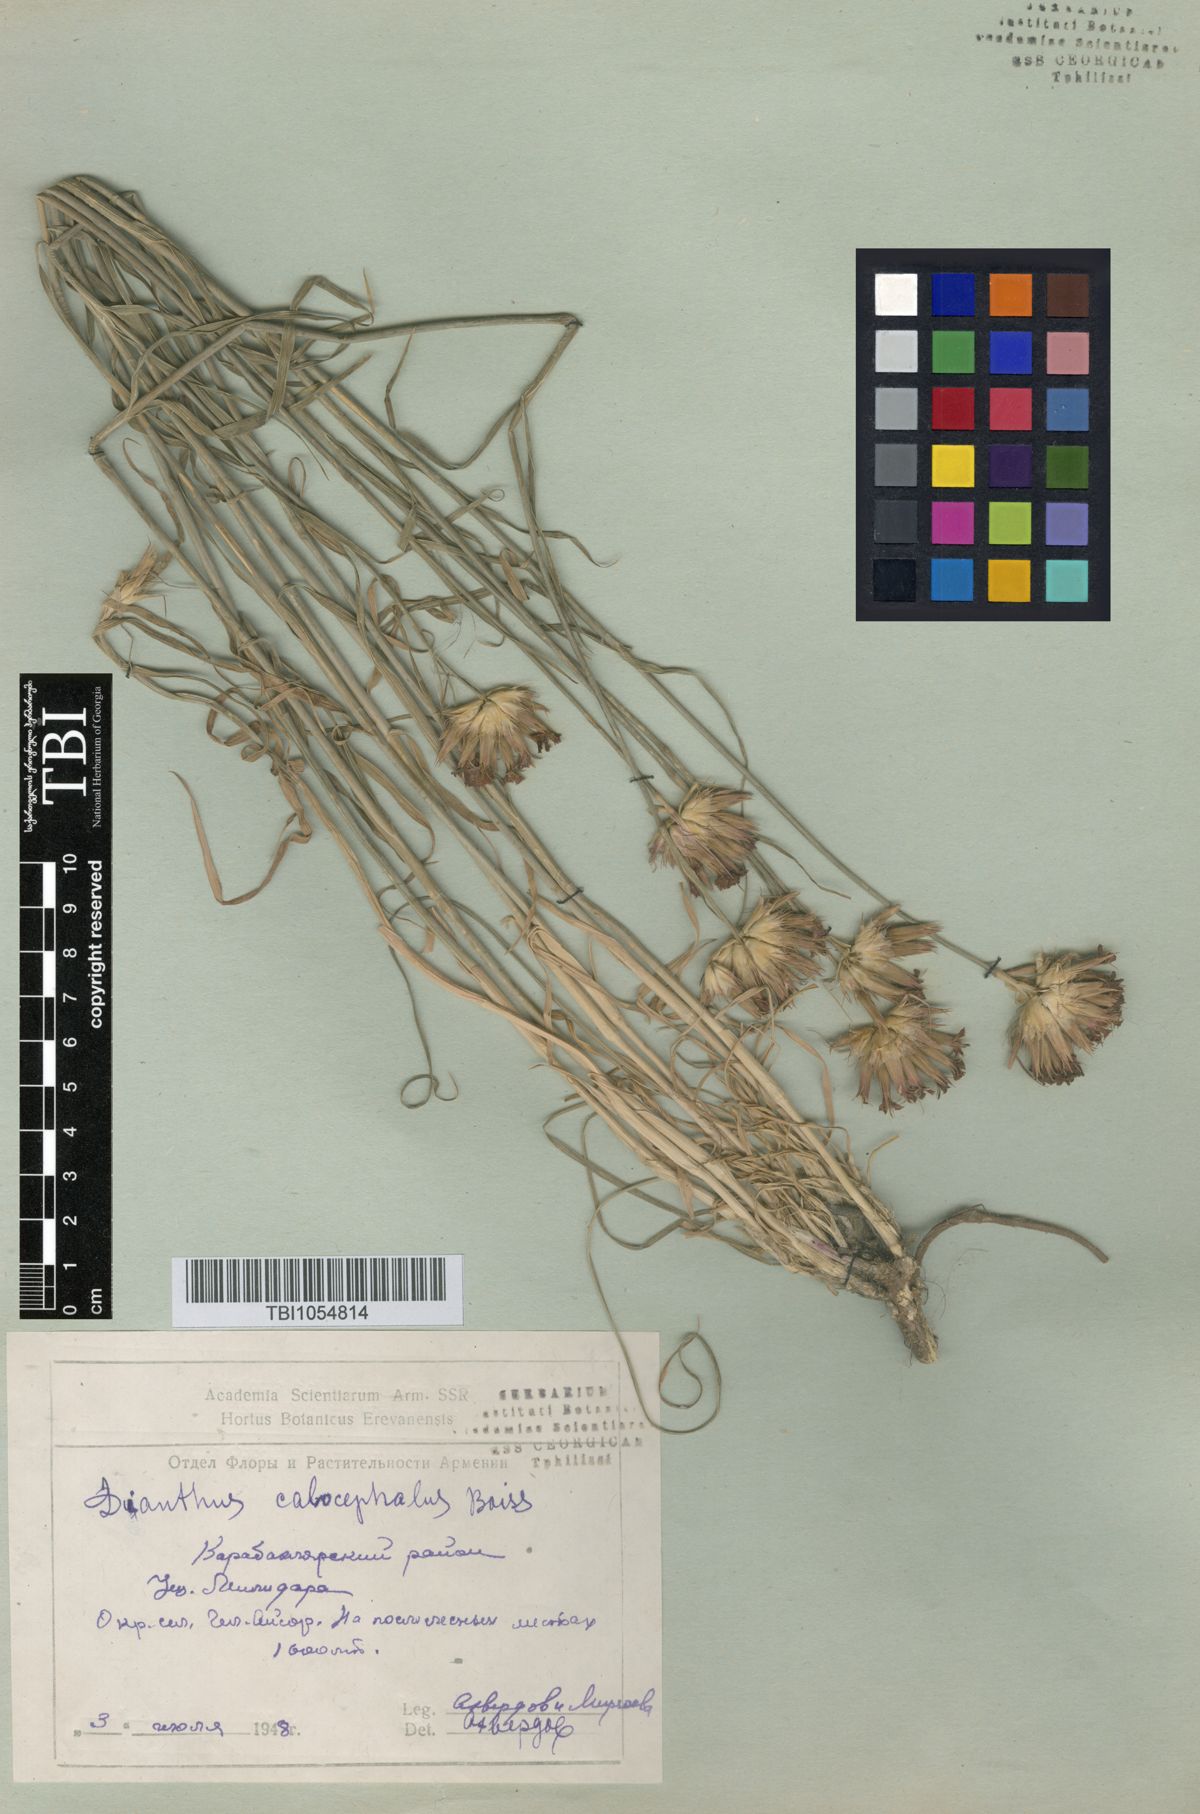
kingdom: Plantae
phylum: Tracheophyta
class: Magnoliopsida
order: Caryophyllales
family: Caryophyllaceae
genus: Dianthus
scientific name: Dianthus cruentus
